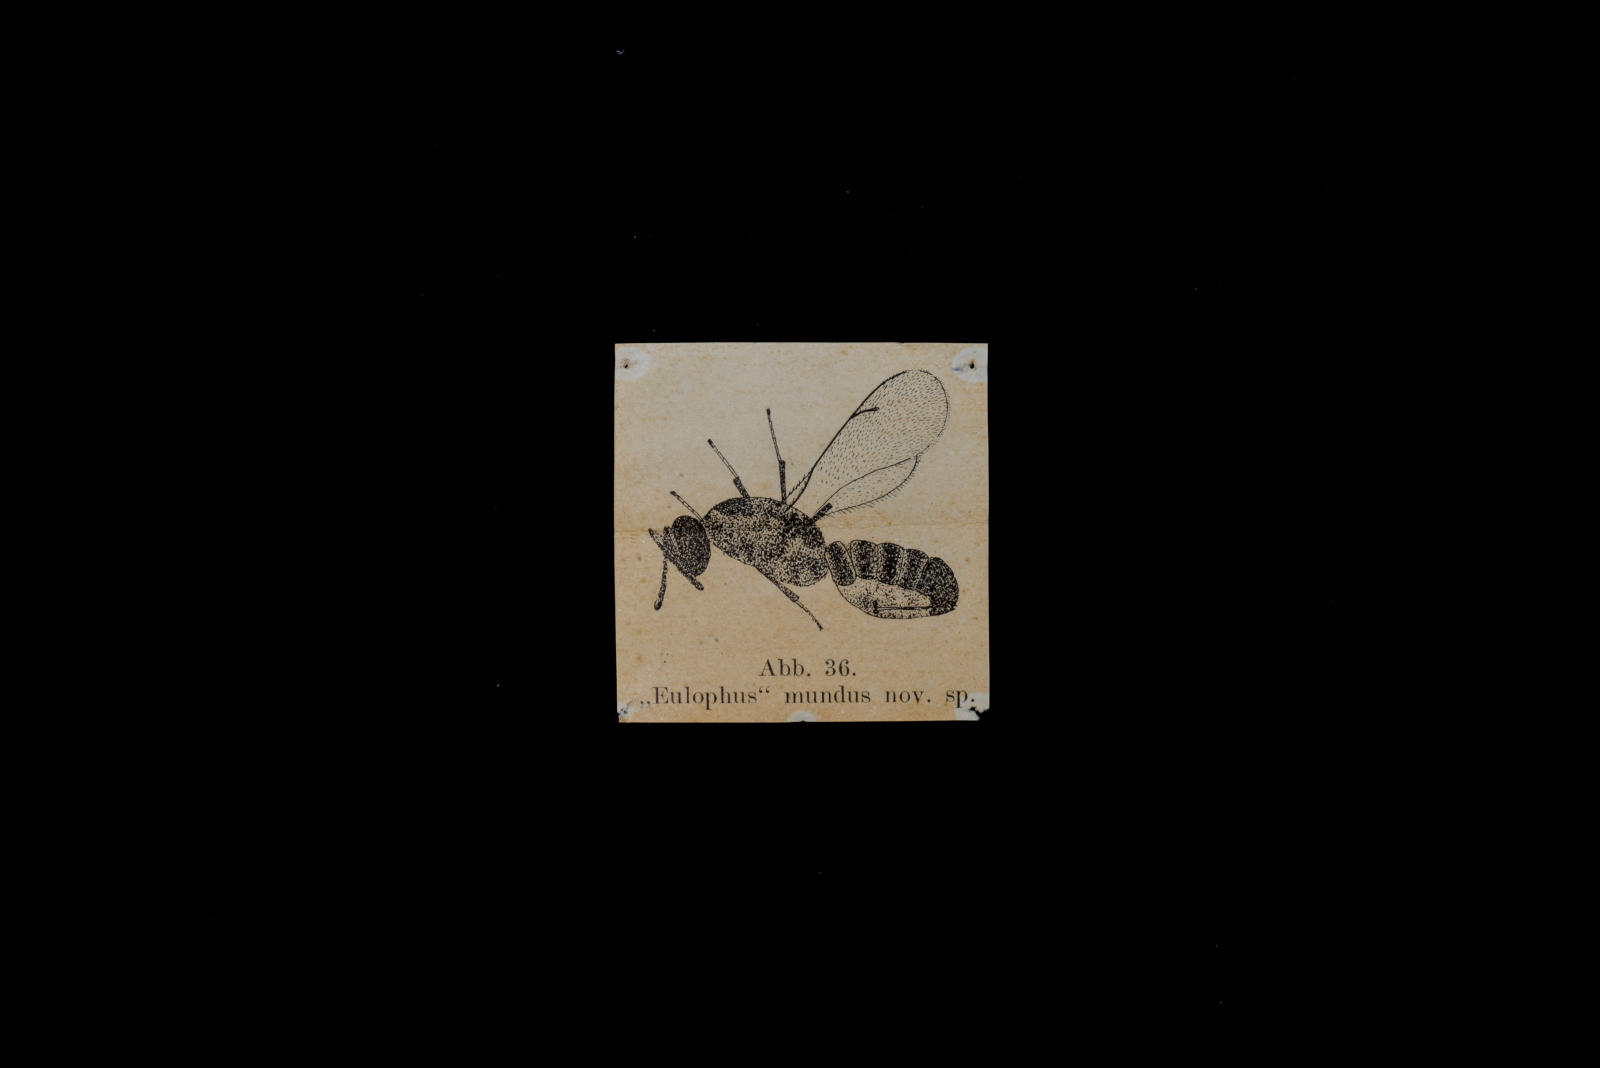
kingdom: Animalia
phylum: Arthropoda
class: Insecta
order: Hymenoptera
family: Eulophidae
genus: Eulophus
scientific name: Eulophus mundus
